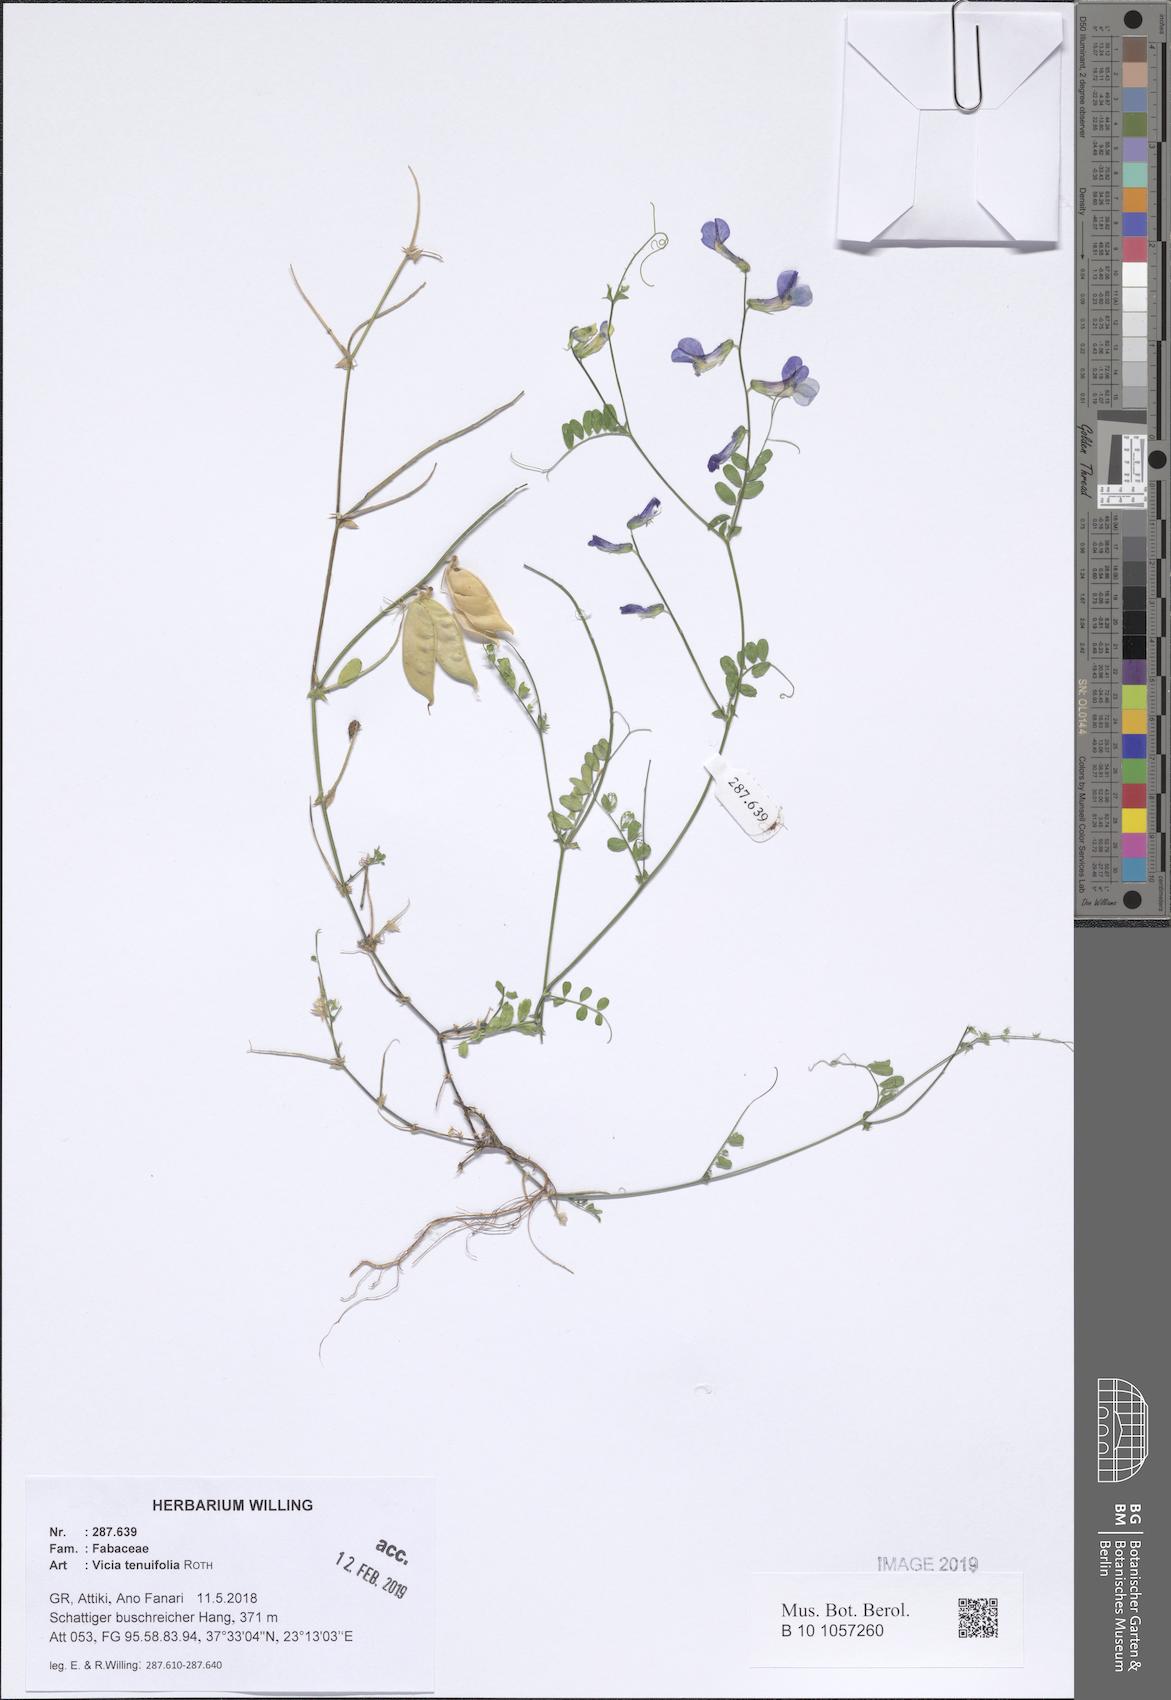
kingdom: Plantae
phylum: Tracheophyta
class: Magnoliopsida
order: Fabales
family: Fabaceae
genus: Vicia
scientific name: Vicia tenuifolia
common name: Fine-leaved vetch
